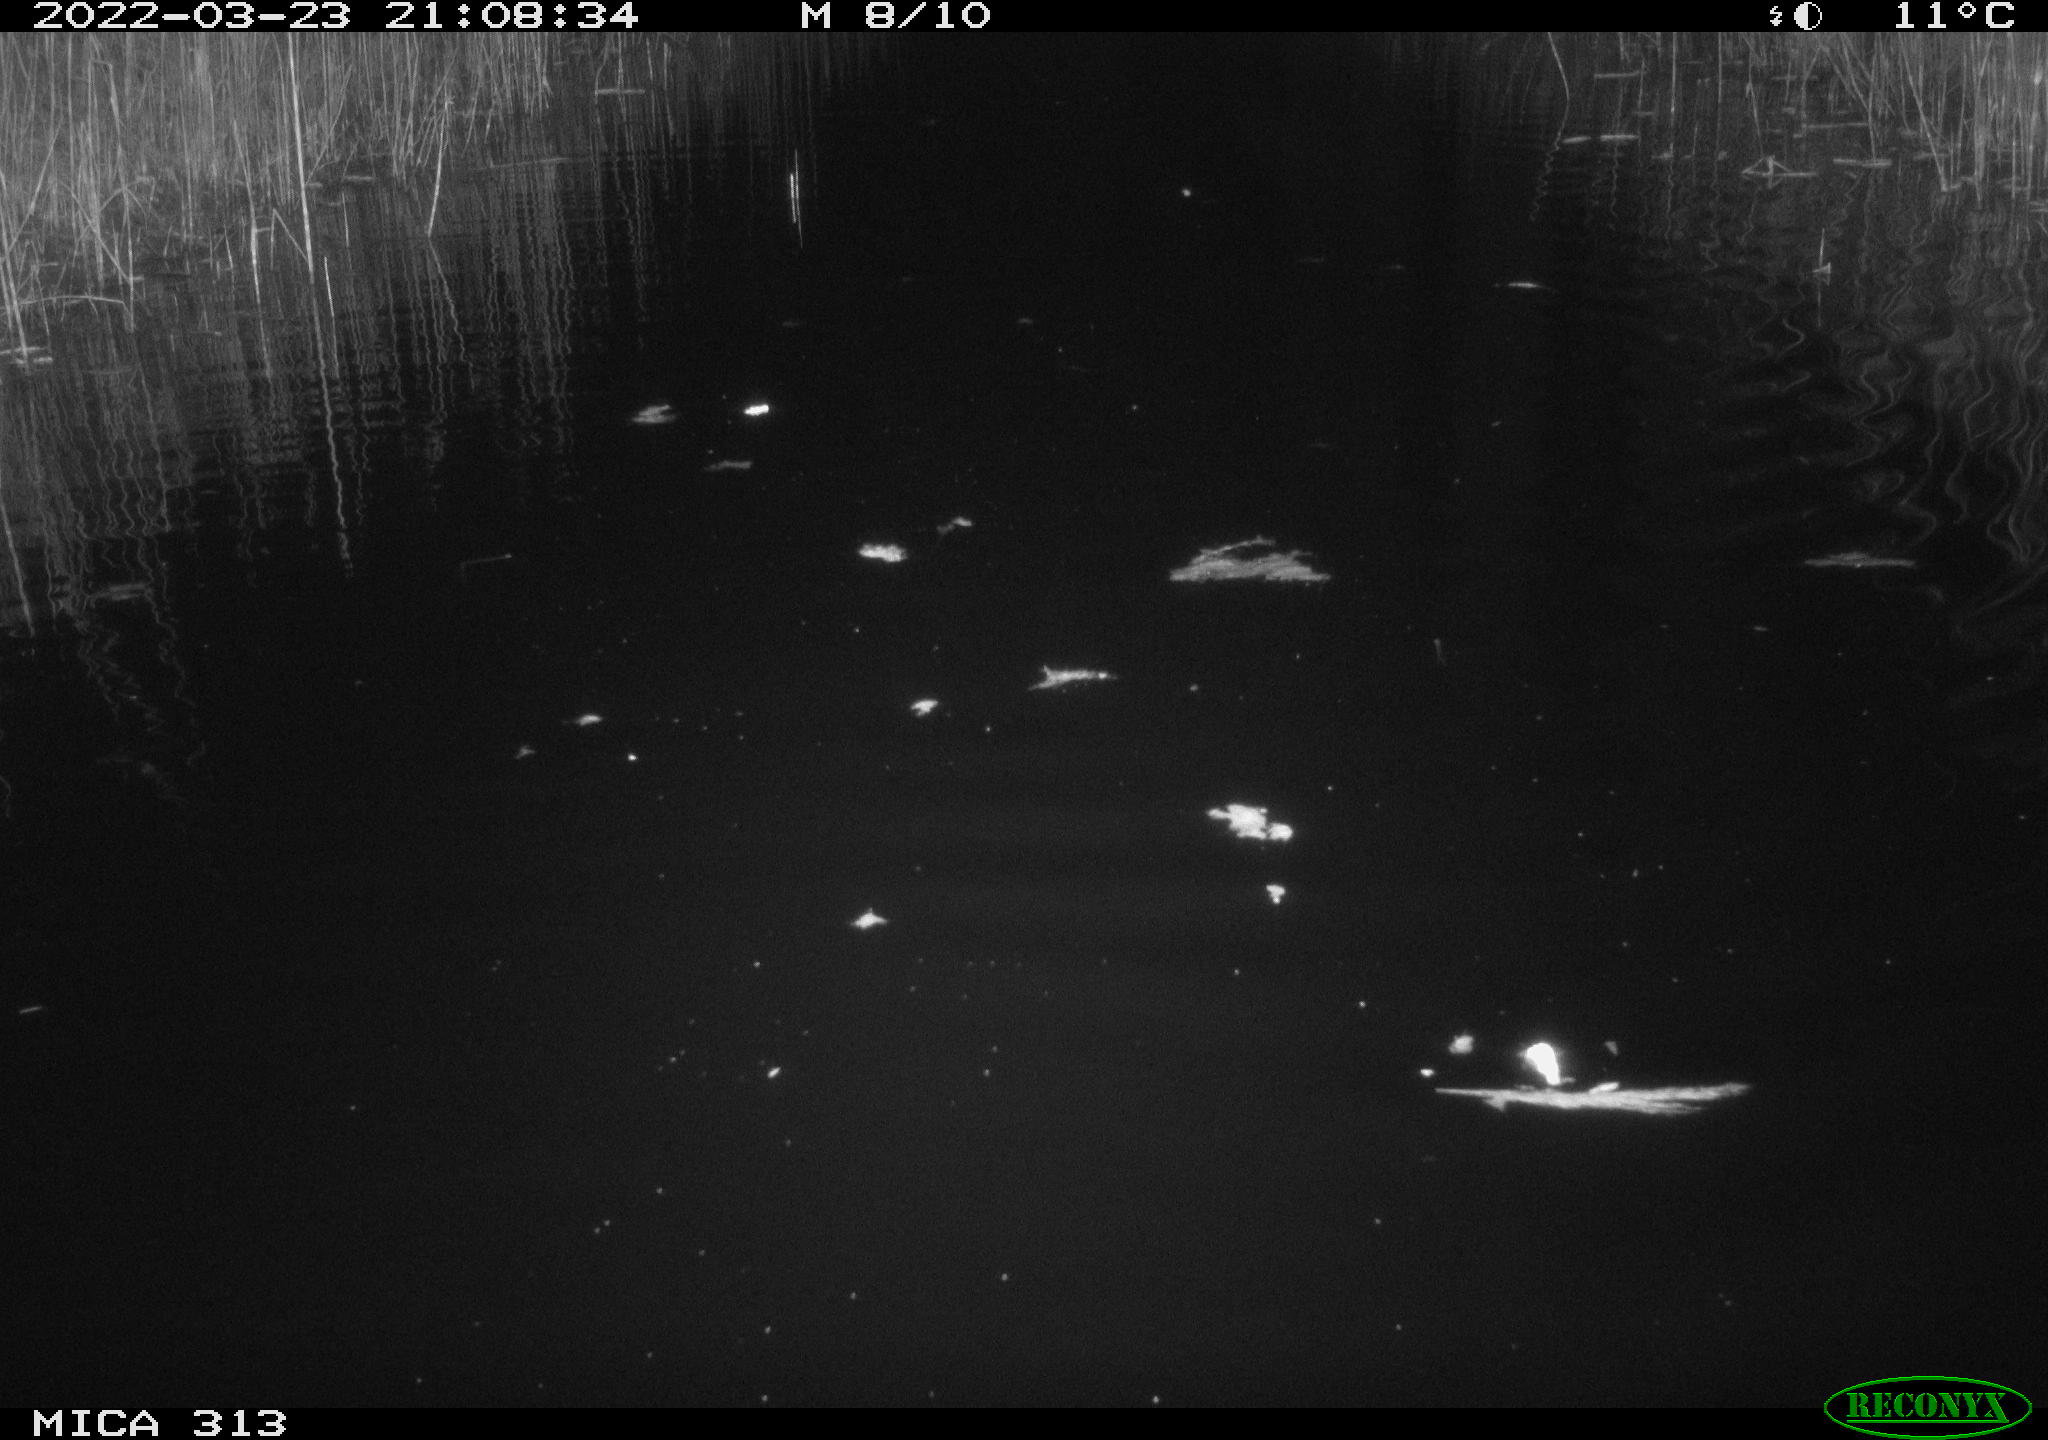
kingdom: Animalia
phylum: Chordata
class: Mammalia
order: Rodentia
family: Cricetidae
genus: Ondatra
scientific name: Ondatra zibethicus
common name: Muskrat
